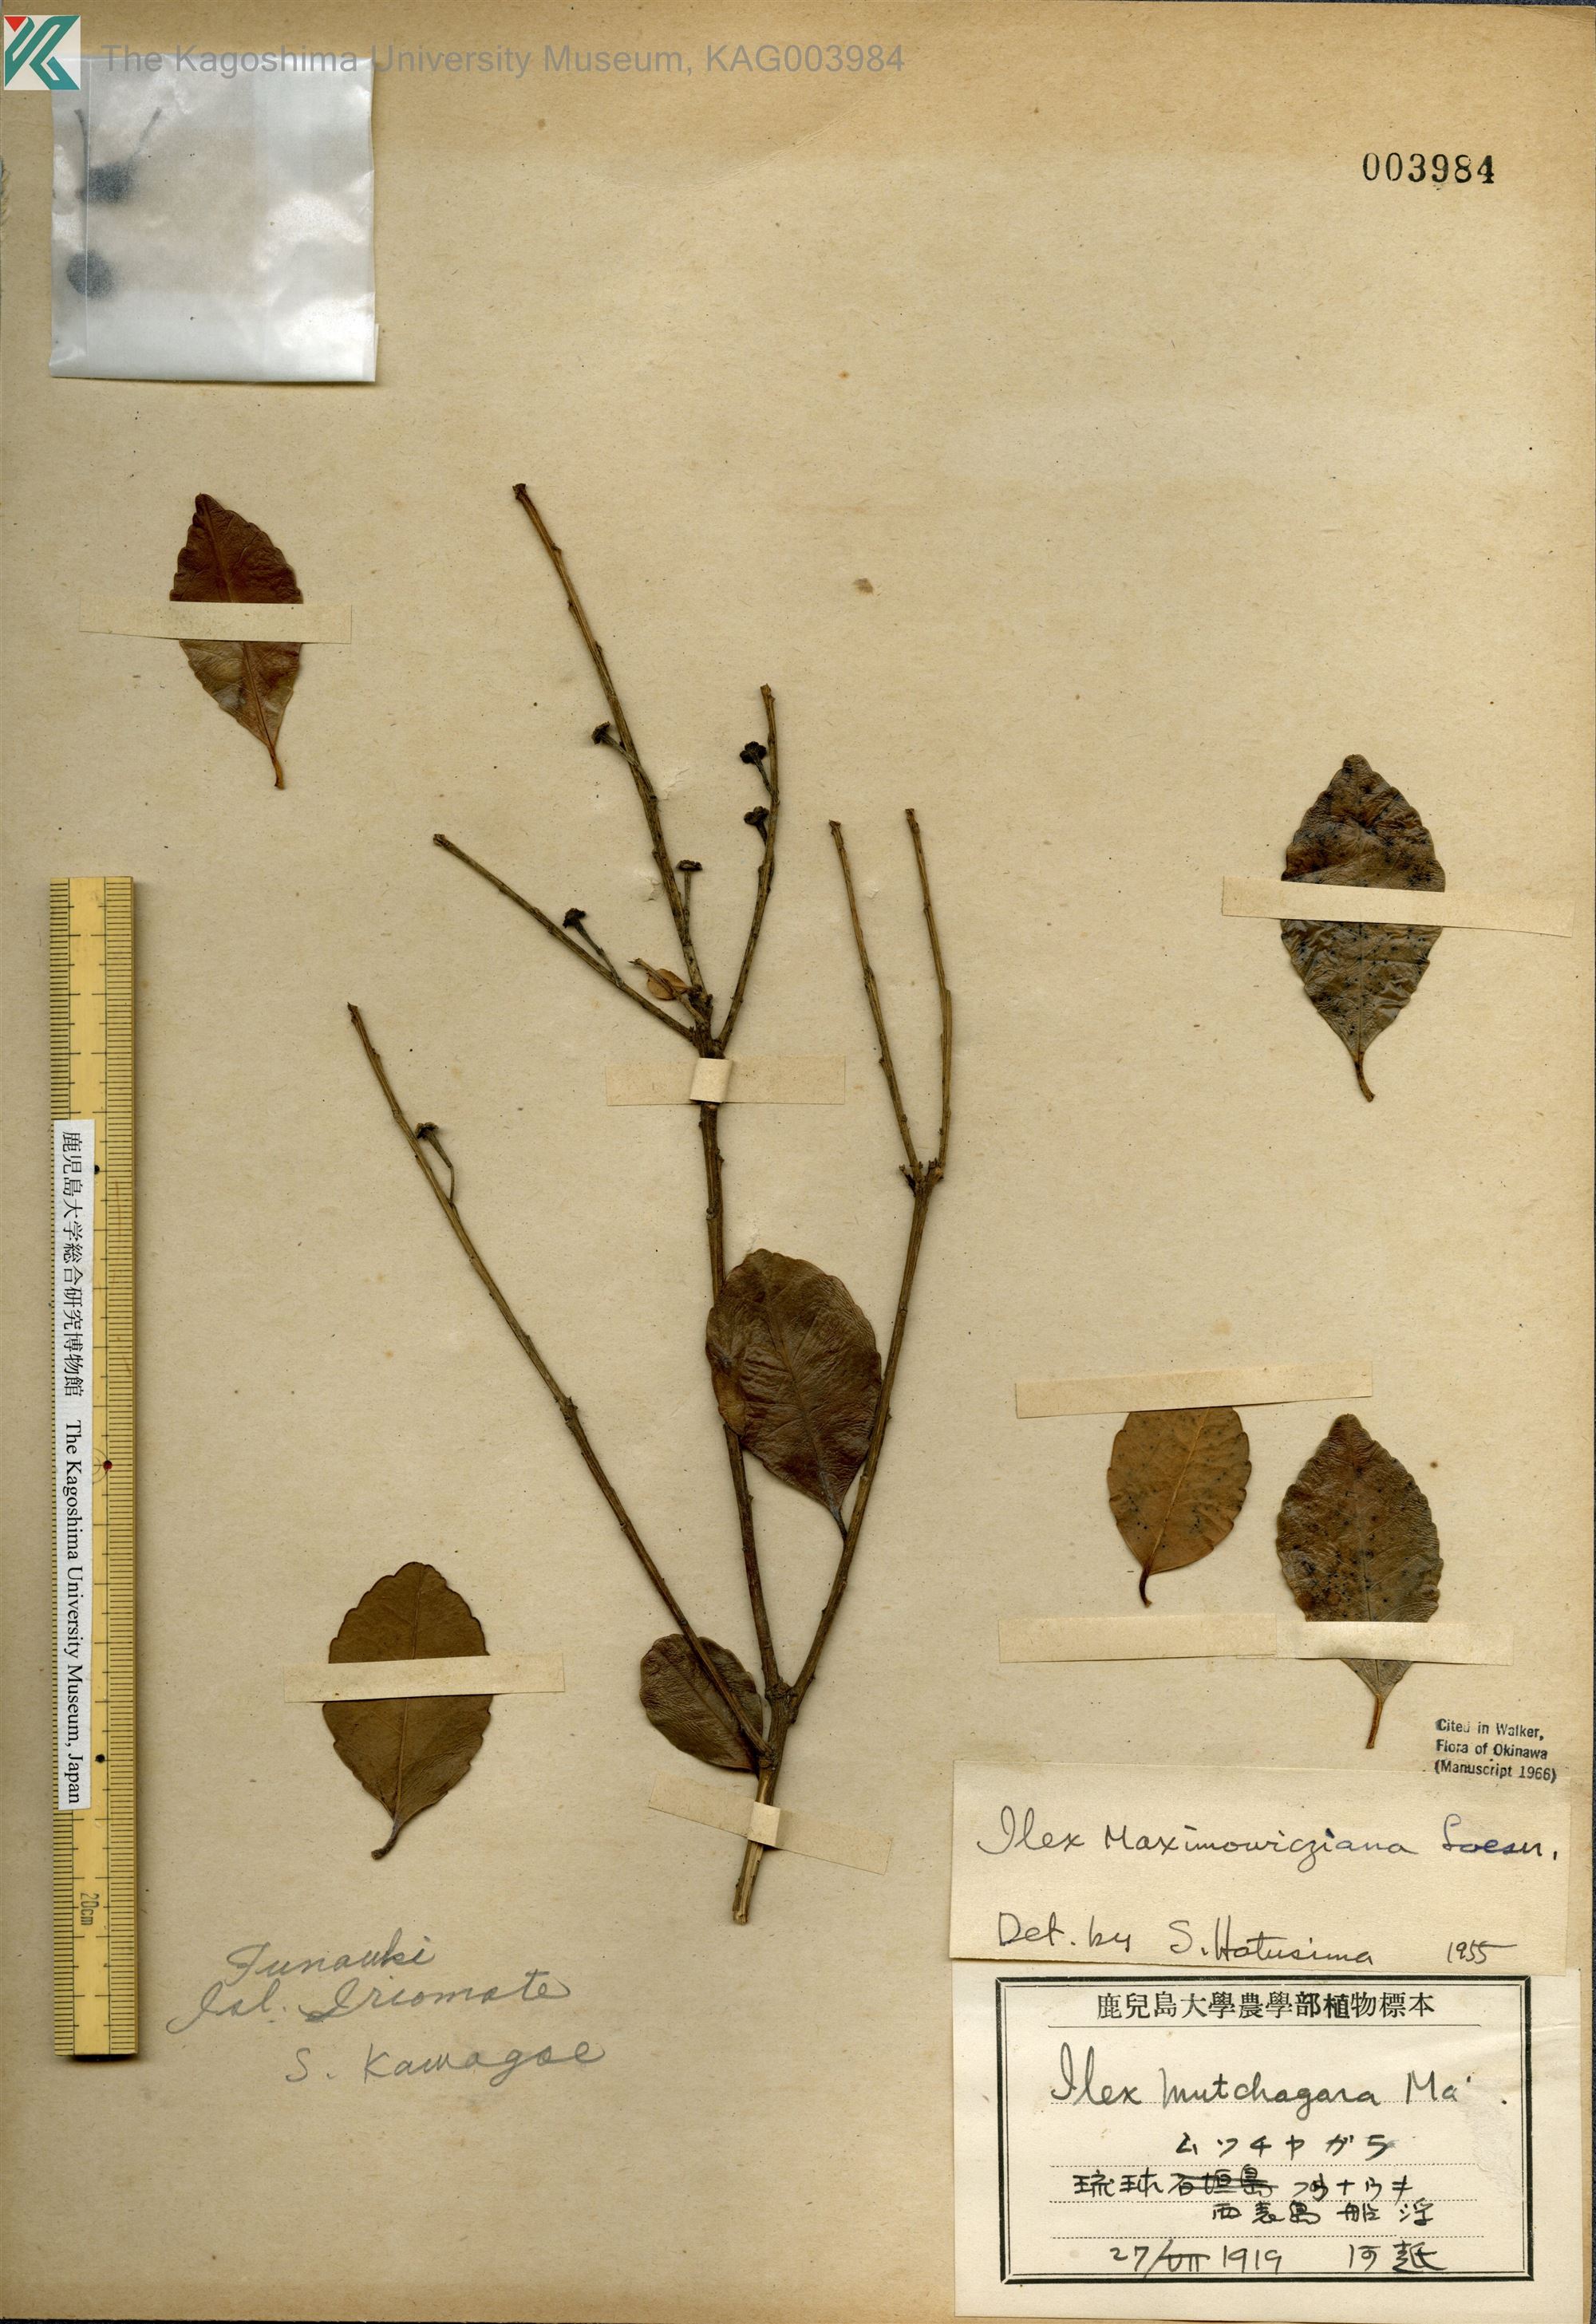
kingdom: Plantae
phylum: Tracheophyta
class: Magnoliopsida
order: Aquifoliales
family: Aquifoliaceae
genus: Ilex
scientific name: Ilex maximowicziana
